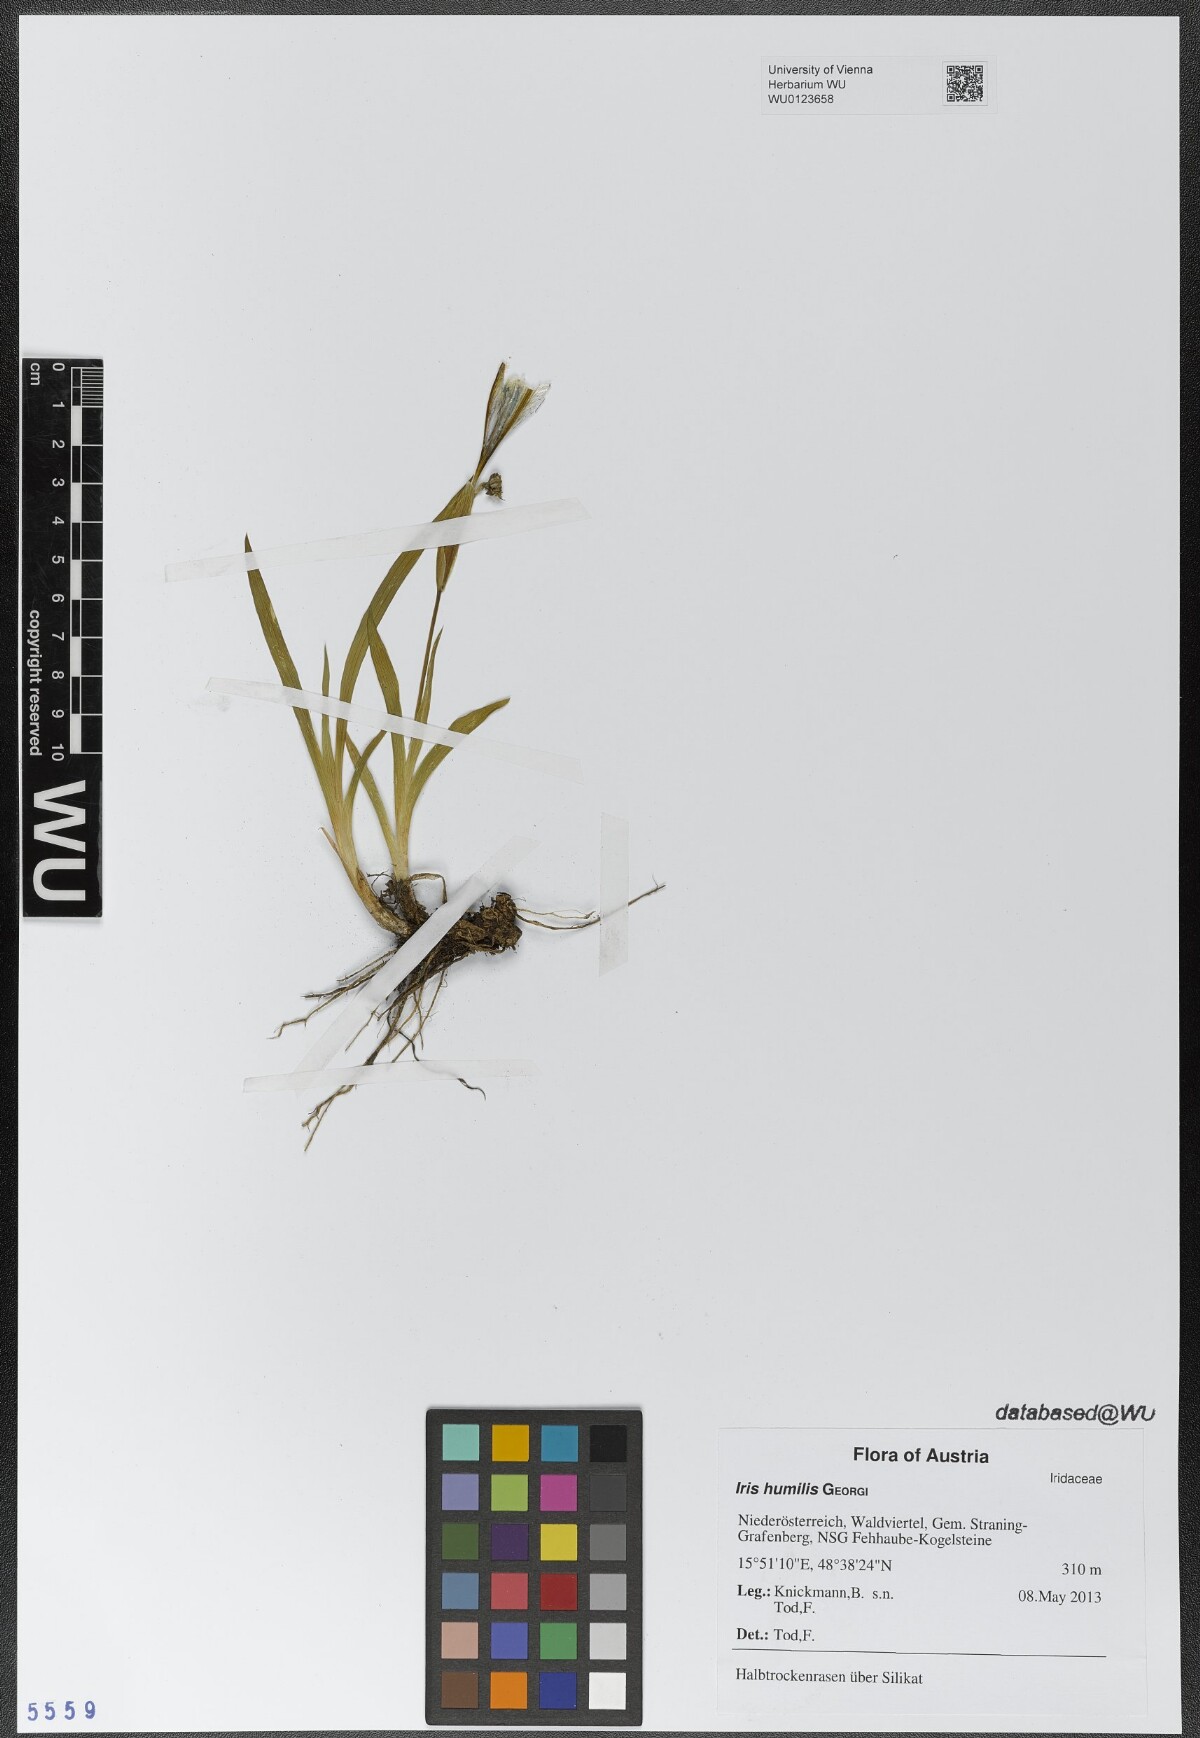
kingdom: Plantae
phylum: Tracheophyta
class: Liliopsida
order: Asparagales
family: Iridaceae
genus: Iris
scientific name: Iris humilis
